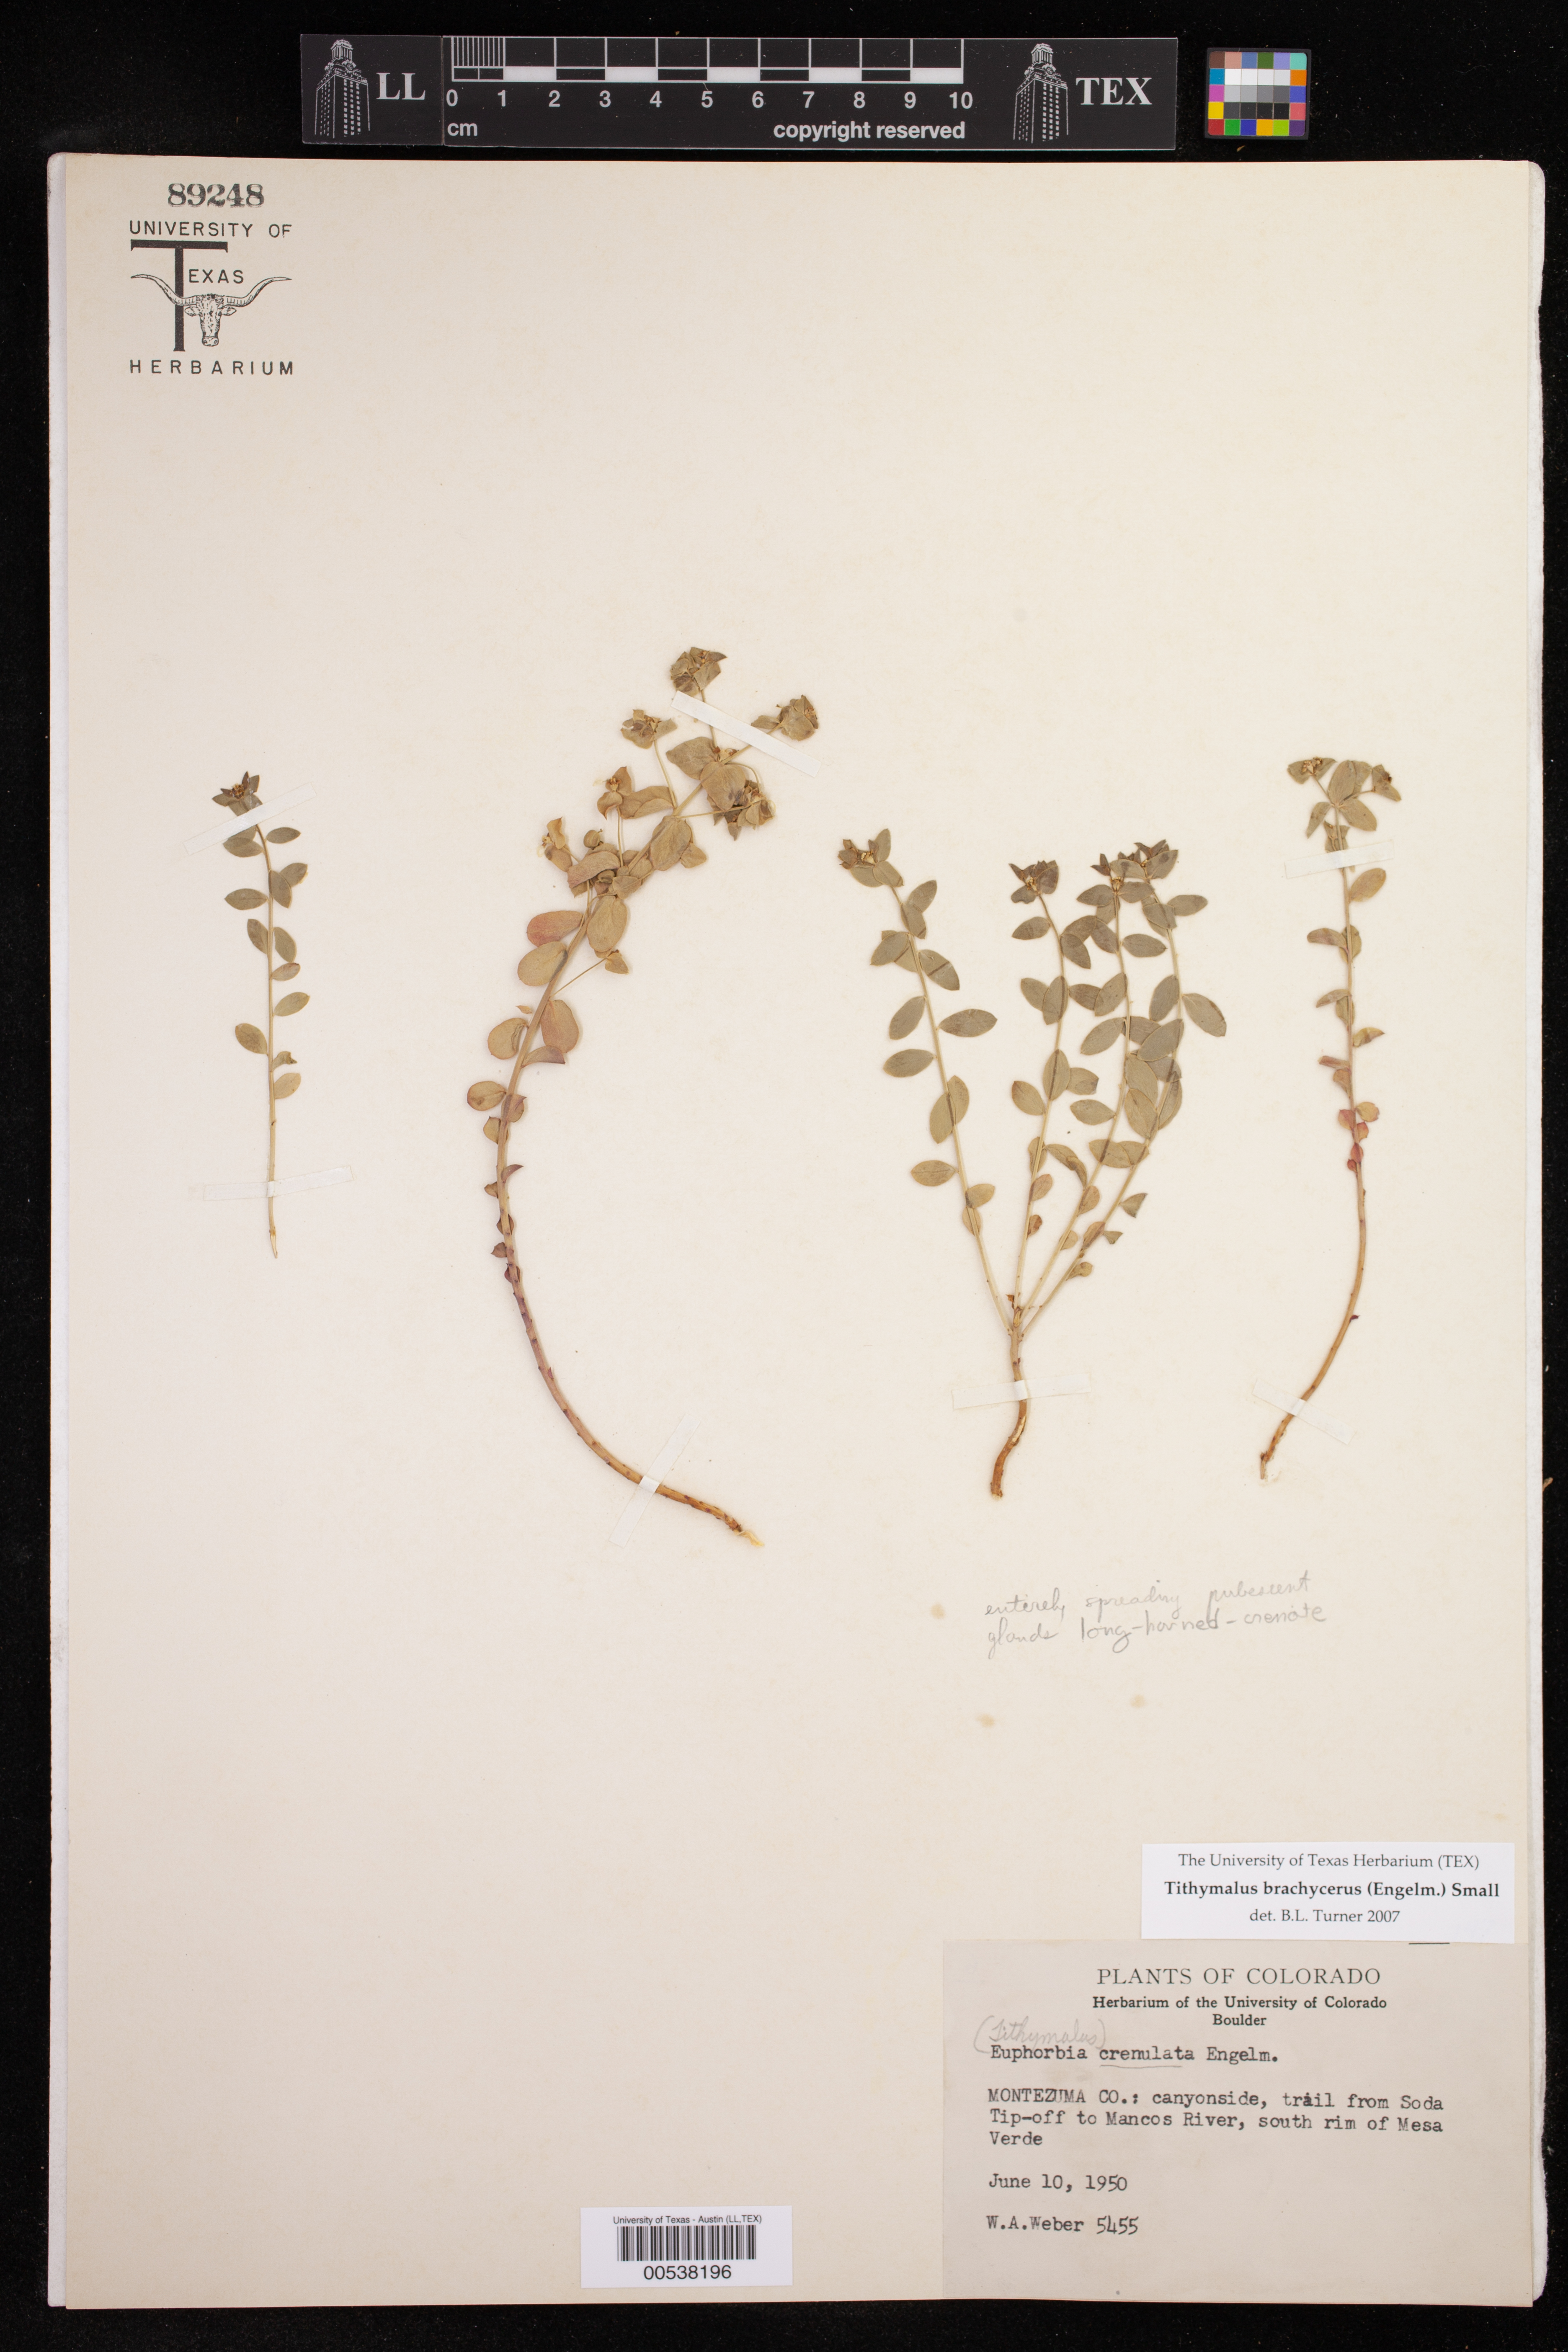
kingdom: Plantae
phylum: Tracheophyta
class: Magnoliopsida
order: Malpighiales
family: Euphorbiaceae
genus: Euphorbia
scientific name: Euphorbia brachycera
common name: Shorthorn spurge
